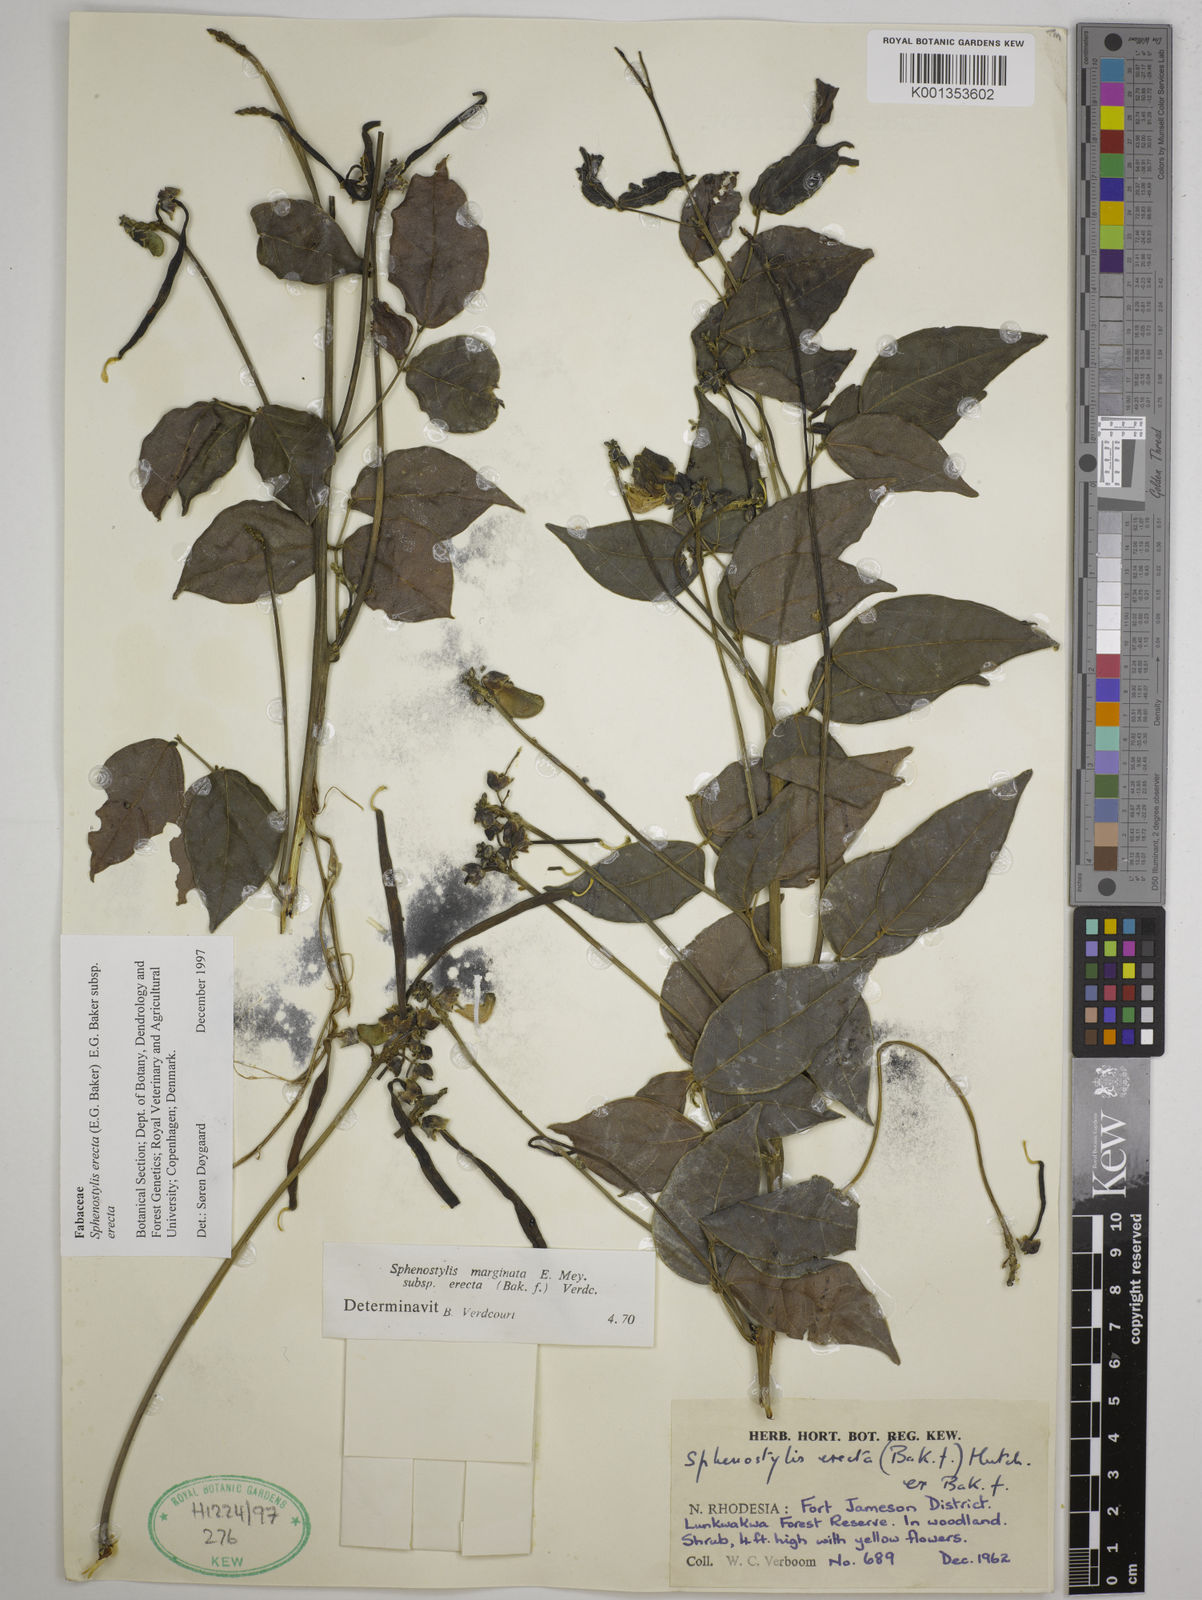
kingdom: Plantae
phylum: Tracheophyta
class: Magnoliopsida
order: Fabales
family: Fabaceae
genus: Sphenostylis
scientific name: Sphenostylis erecta
